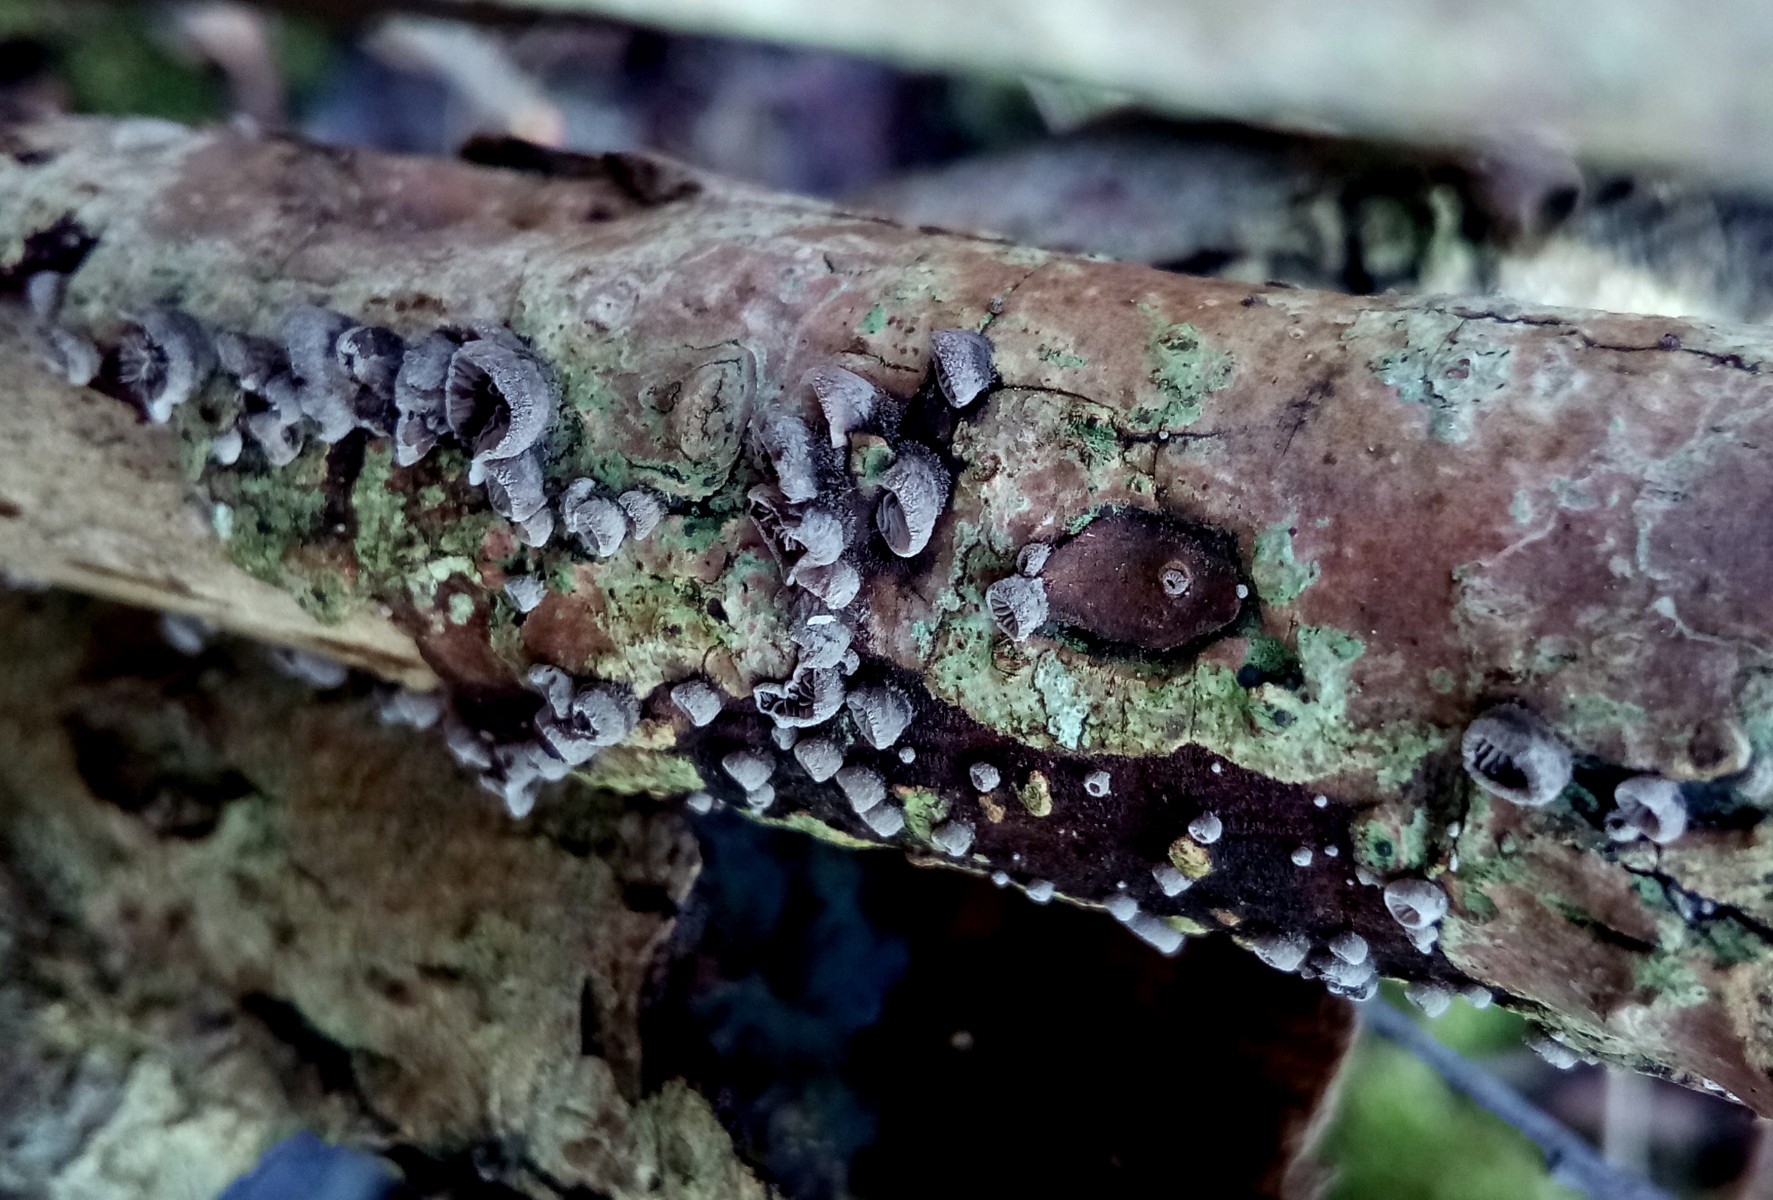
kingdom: Fungi
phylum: Basidiomycota
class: Agaricomycetes
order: Agaricales
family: Pleurotaceae
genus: Resupinatus
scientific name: Resupinatus trichotis
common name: mørkfiltet barkhat
